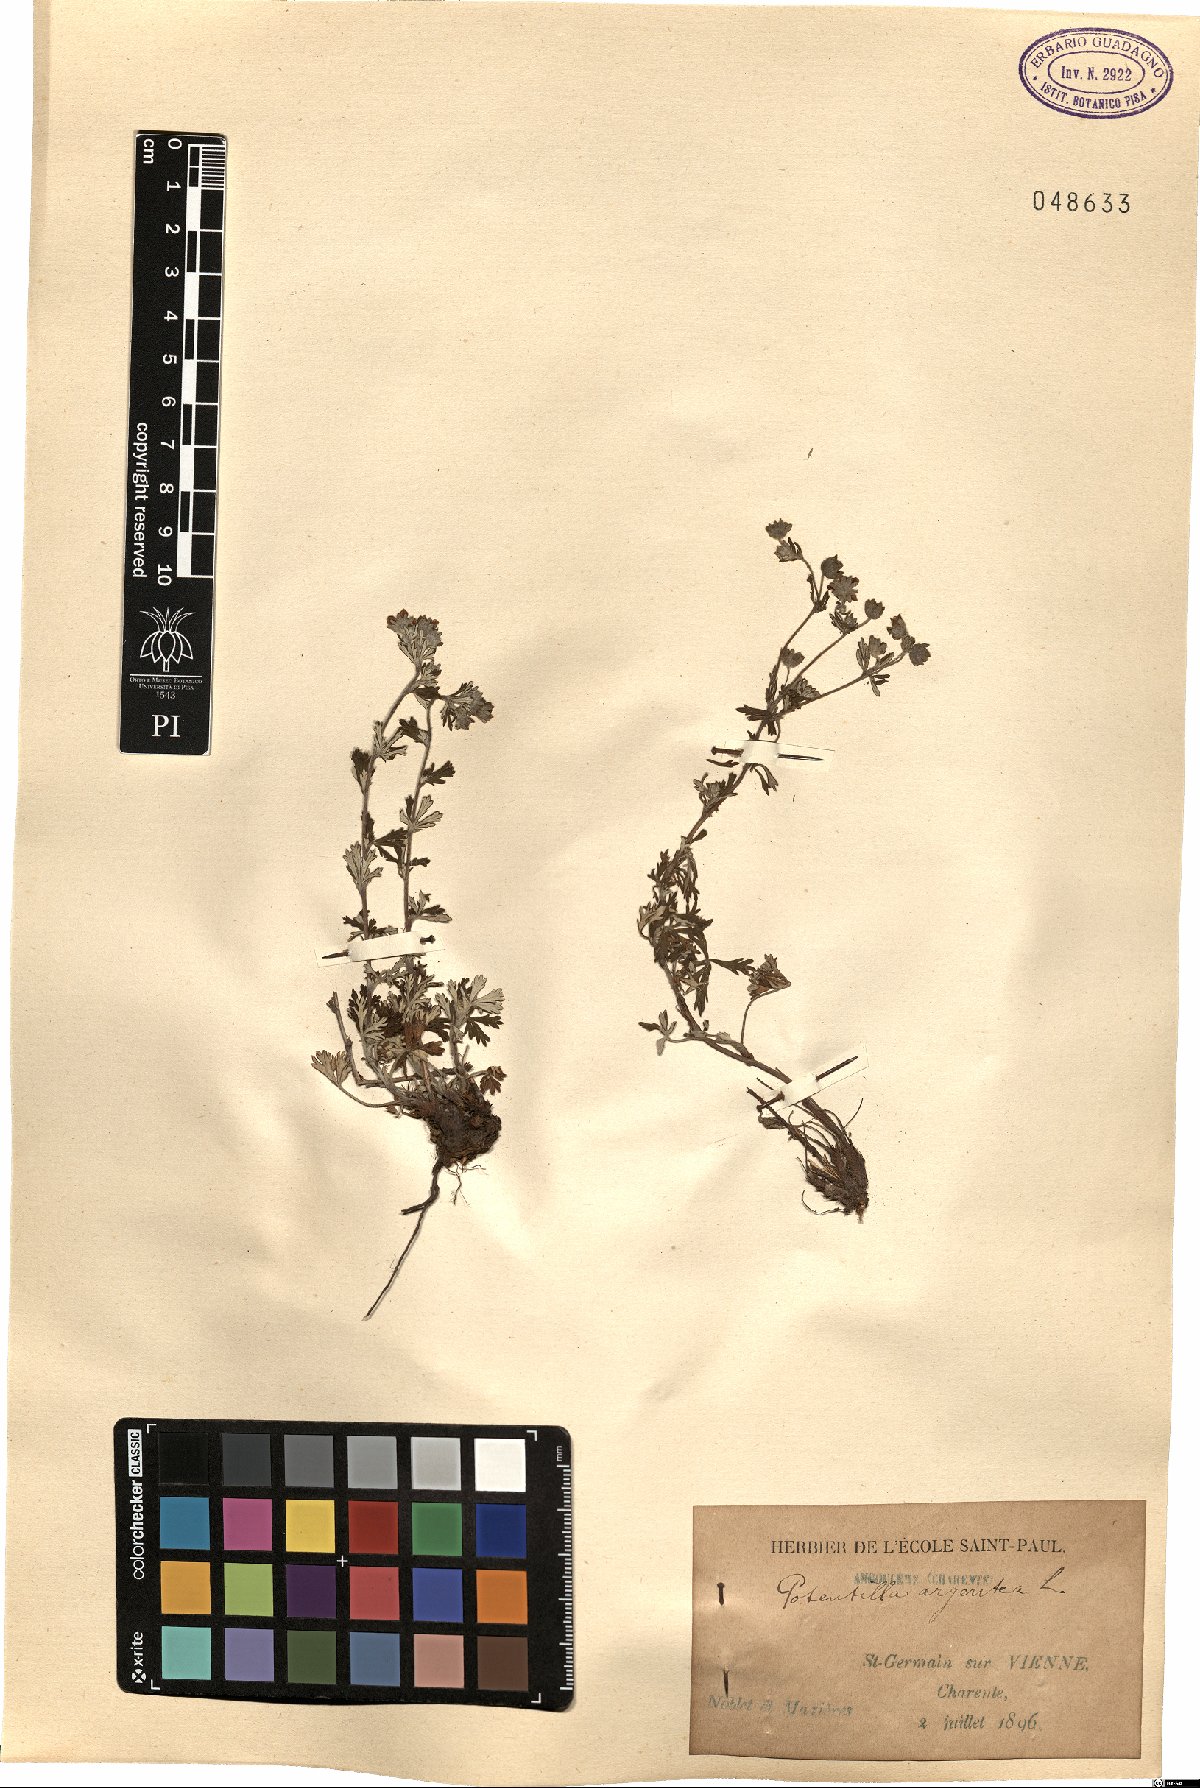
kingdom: Plantae
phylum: Tracheophyta
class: Magnoliopsida
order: Rosales
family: Rosaceae
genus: Potentilla
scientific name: Potentilla argentea
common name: Hoary cinquefoil
